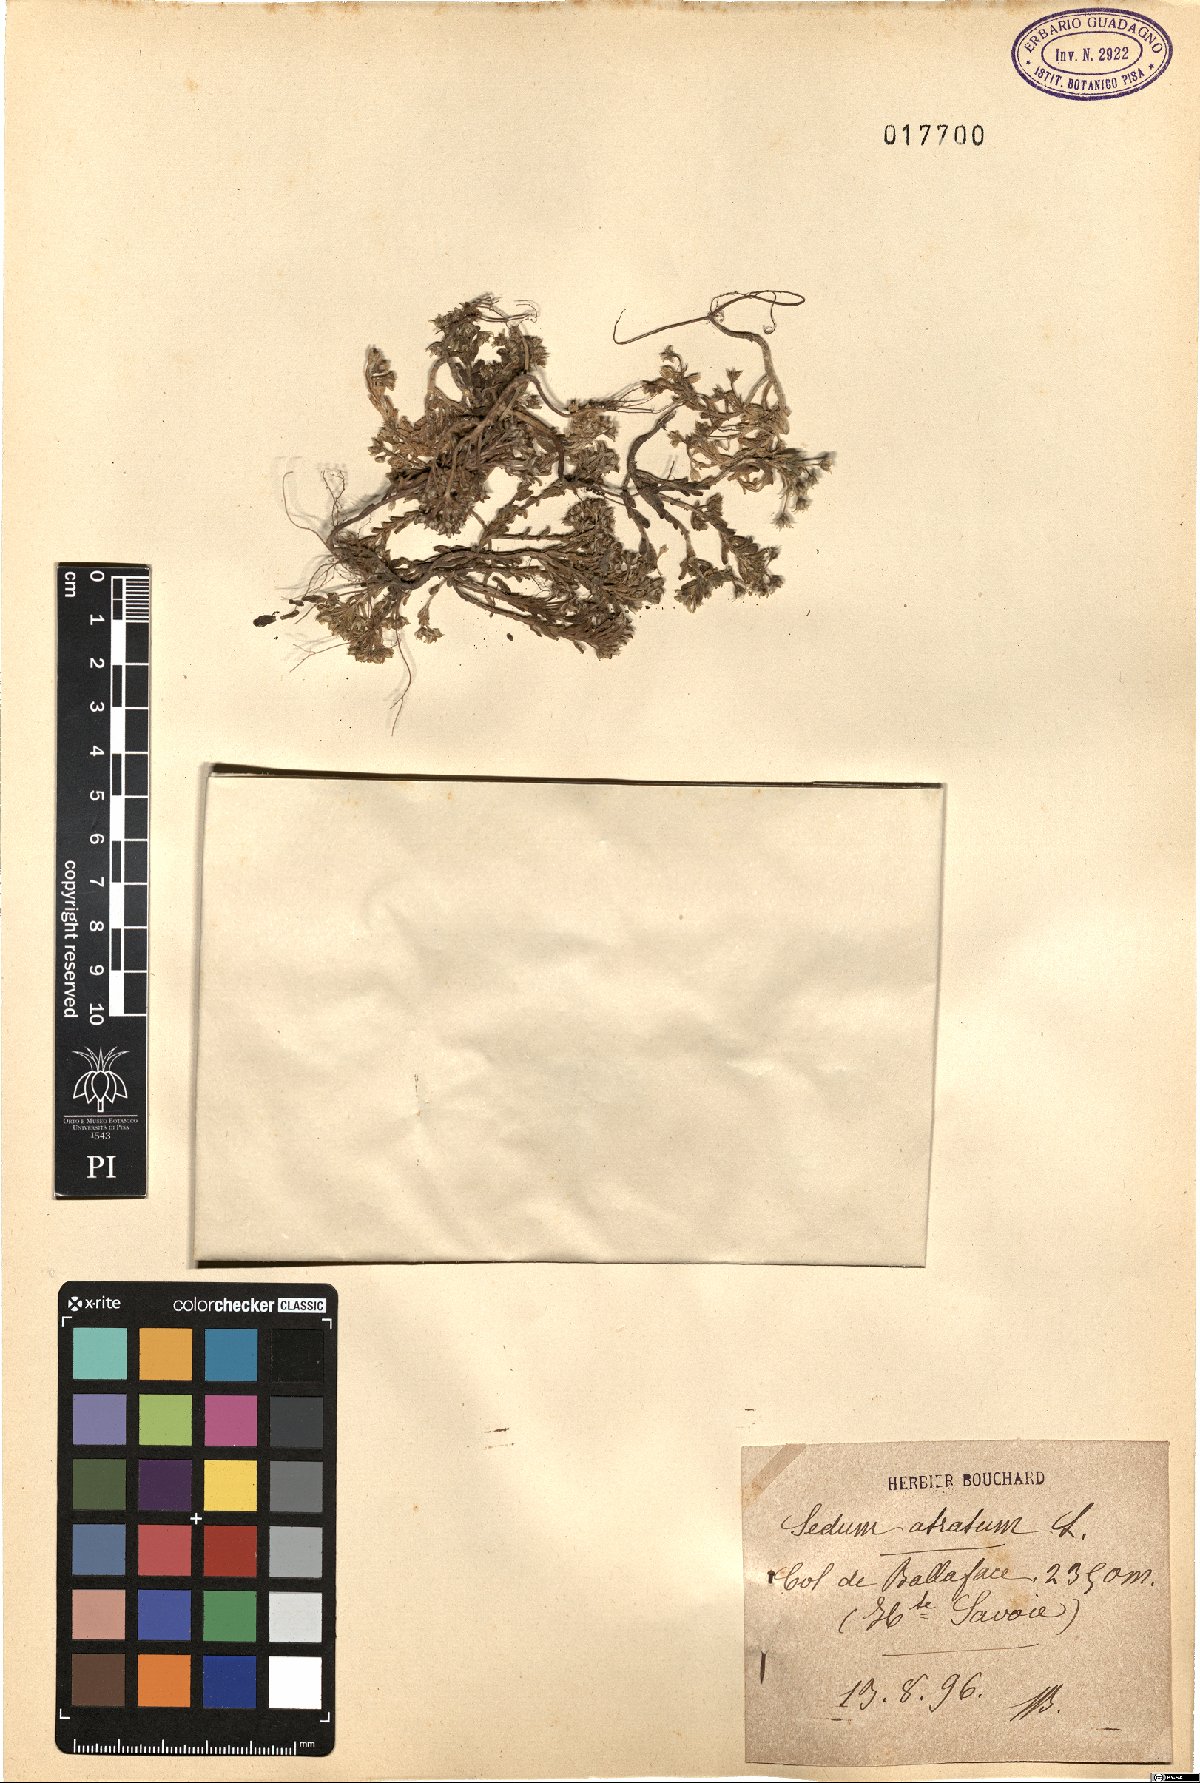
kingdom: Plantae
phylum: Tracheophyta
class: Magnoliopsida
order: Saxifragales
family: Crassulaceae
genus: Sedum
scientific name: Sedum atratum
